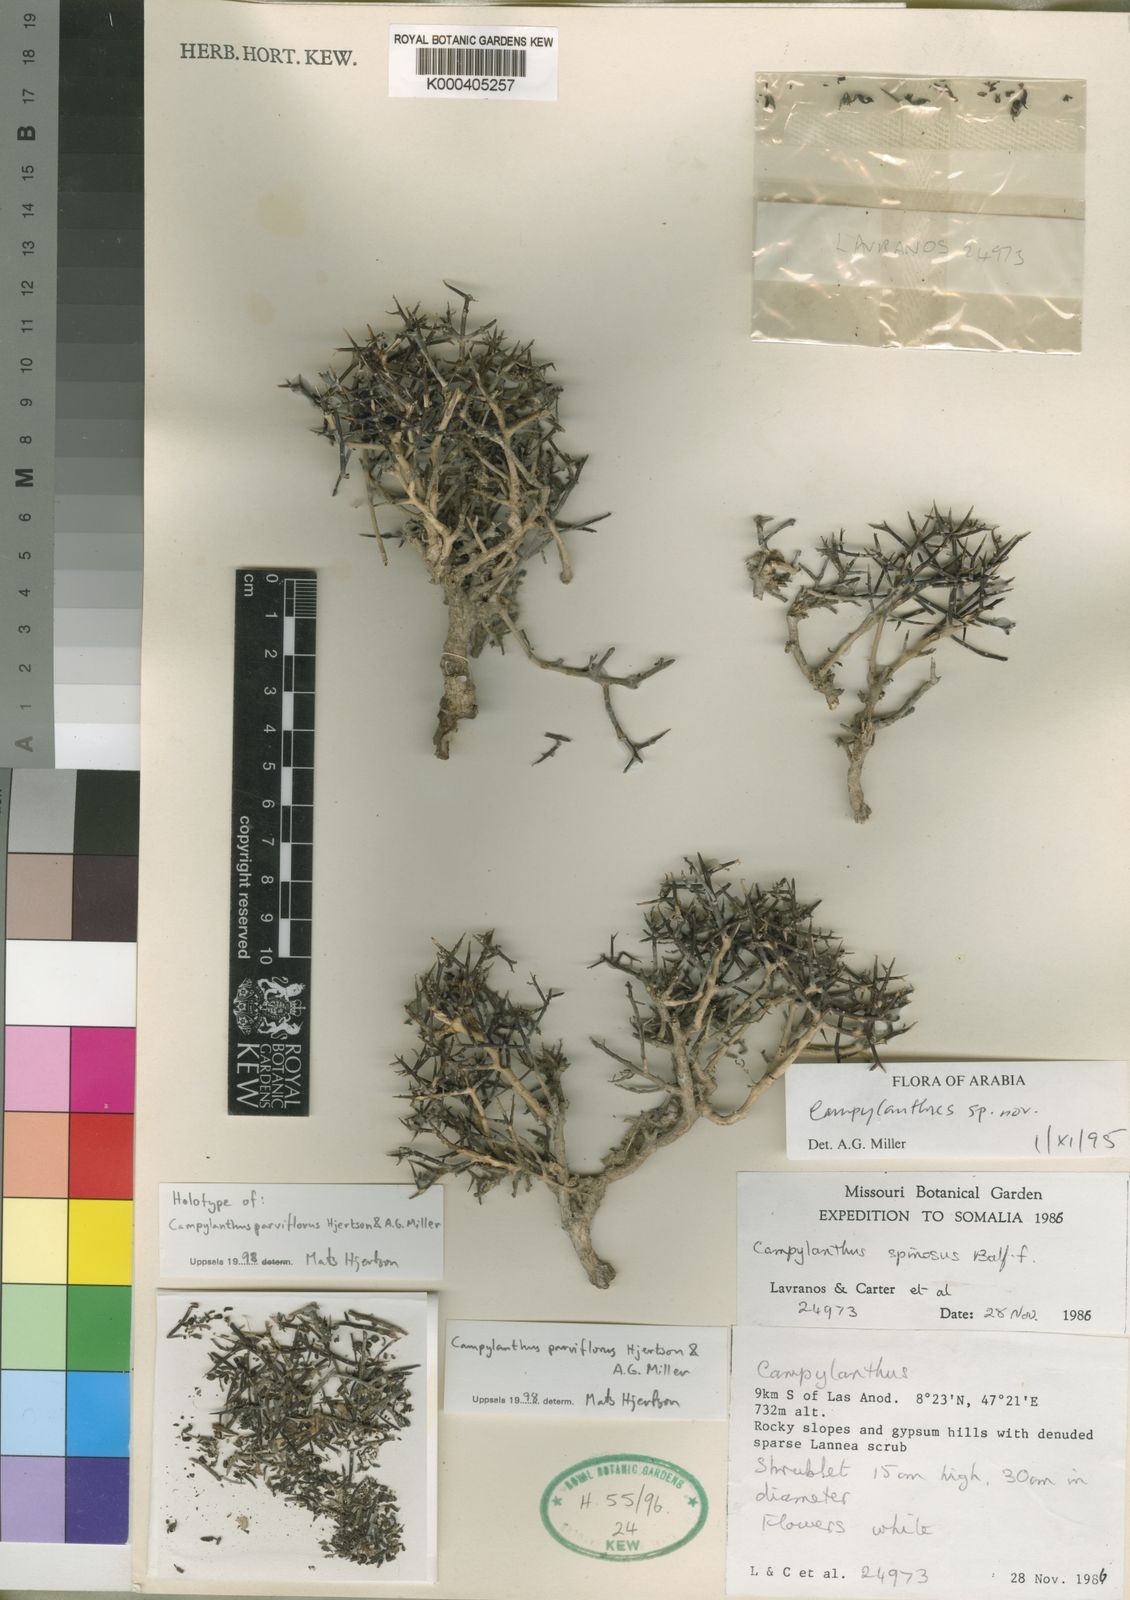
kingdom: Plantae
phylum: Tracheophyta
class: Magnoliopsida
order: Lamiales
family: Plantaginaceae
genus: Campylanthus
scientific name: Campylanthus parviflorus
